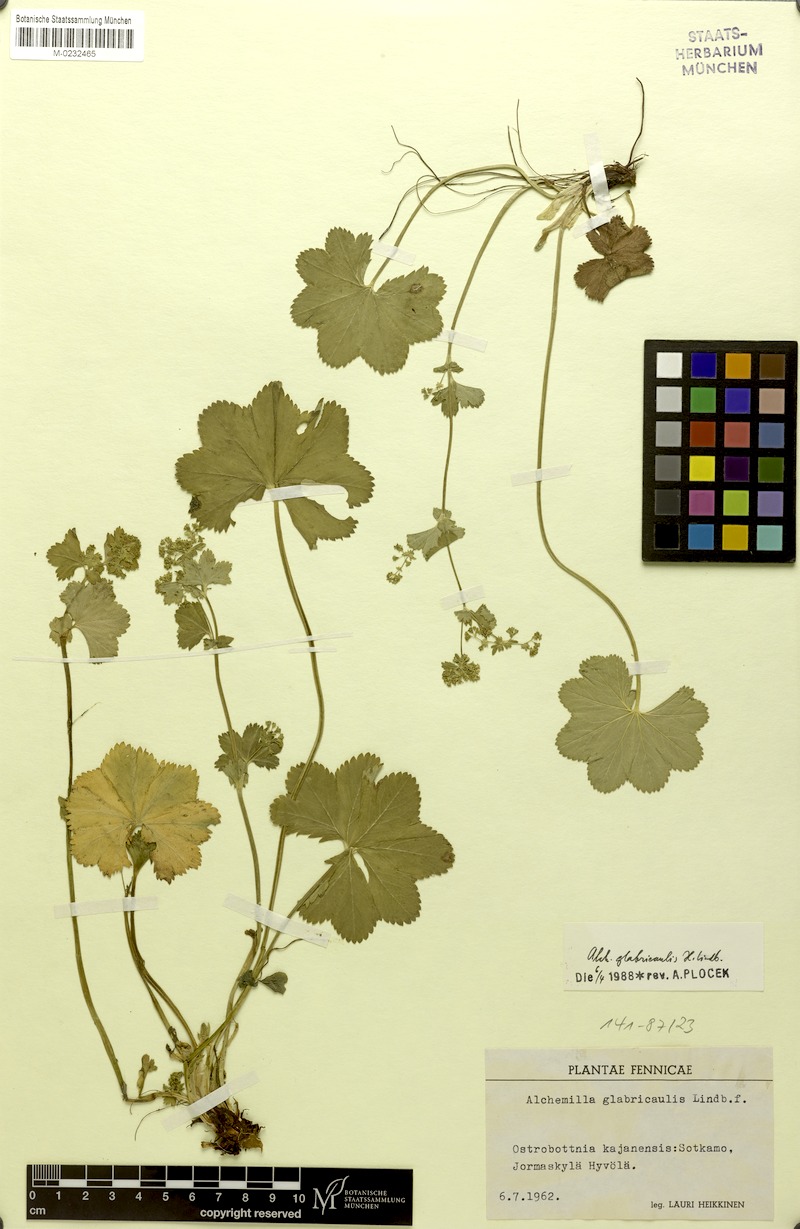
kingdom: Plantae
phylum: Tracheophyta
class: Magnoliopsida
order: Rosales
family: Rosaceae
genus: Alchemilla
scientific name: Alchemilla glabricaulis
